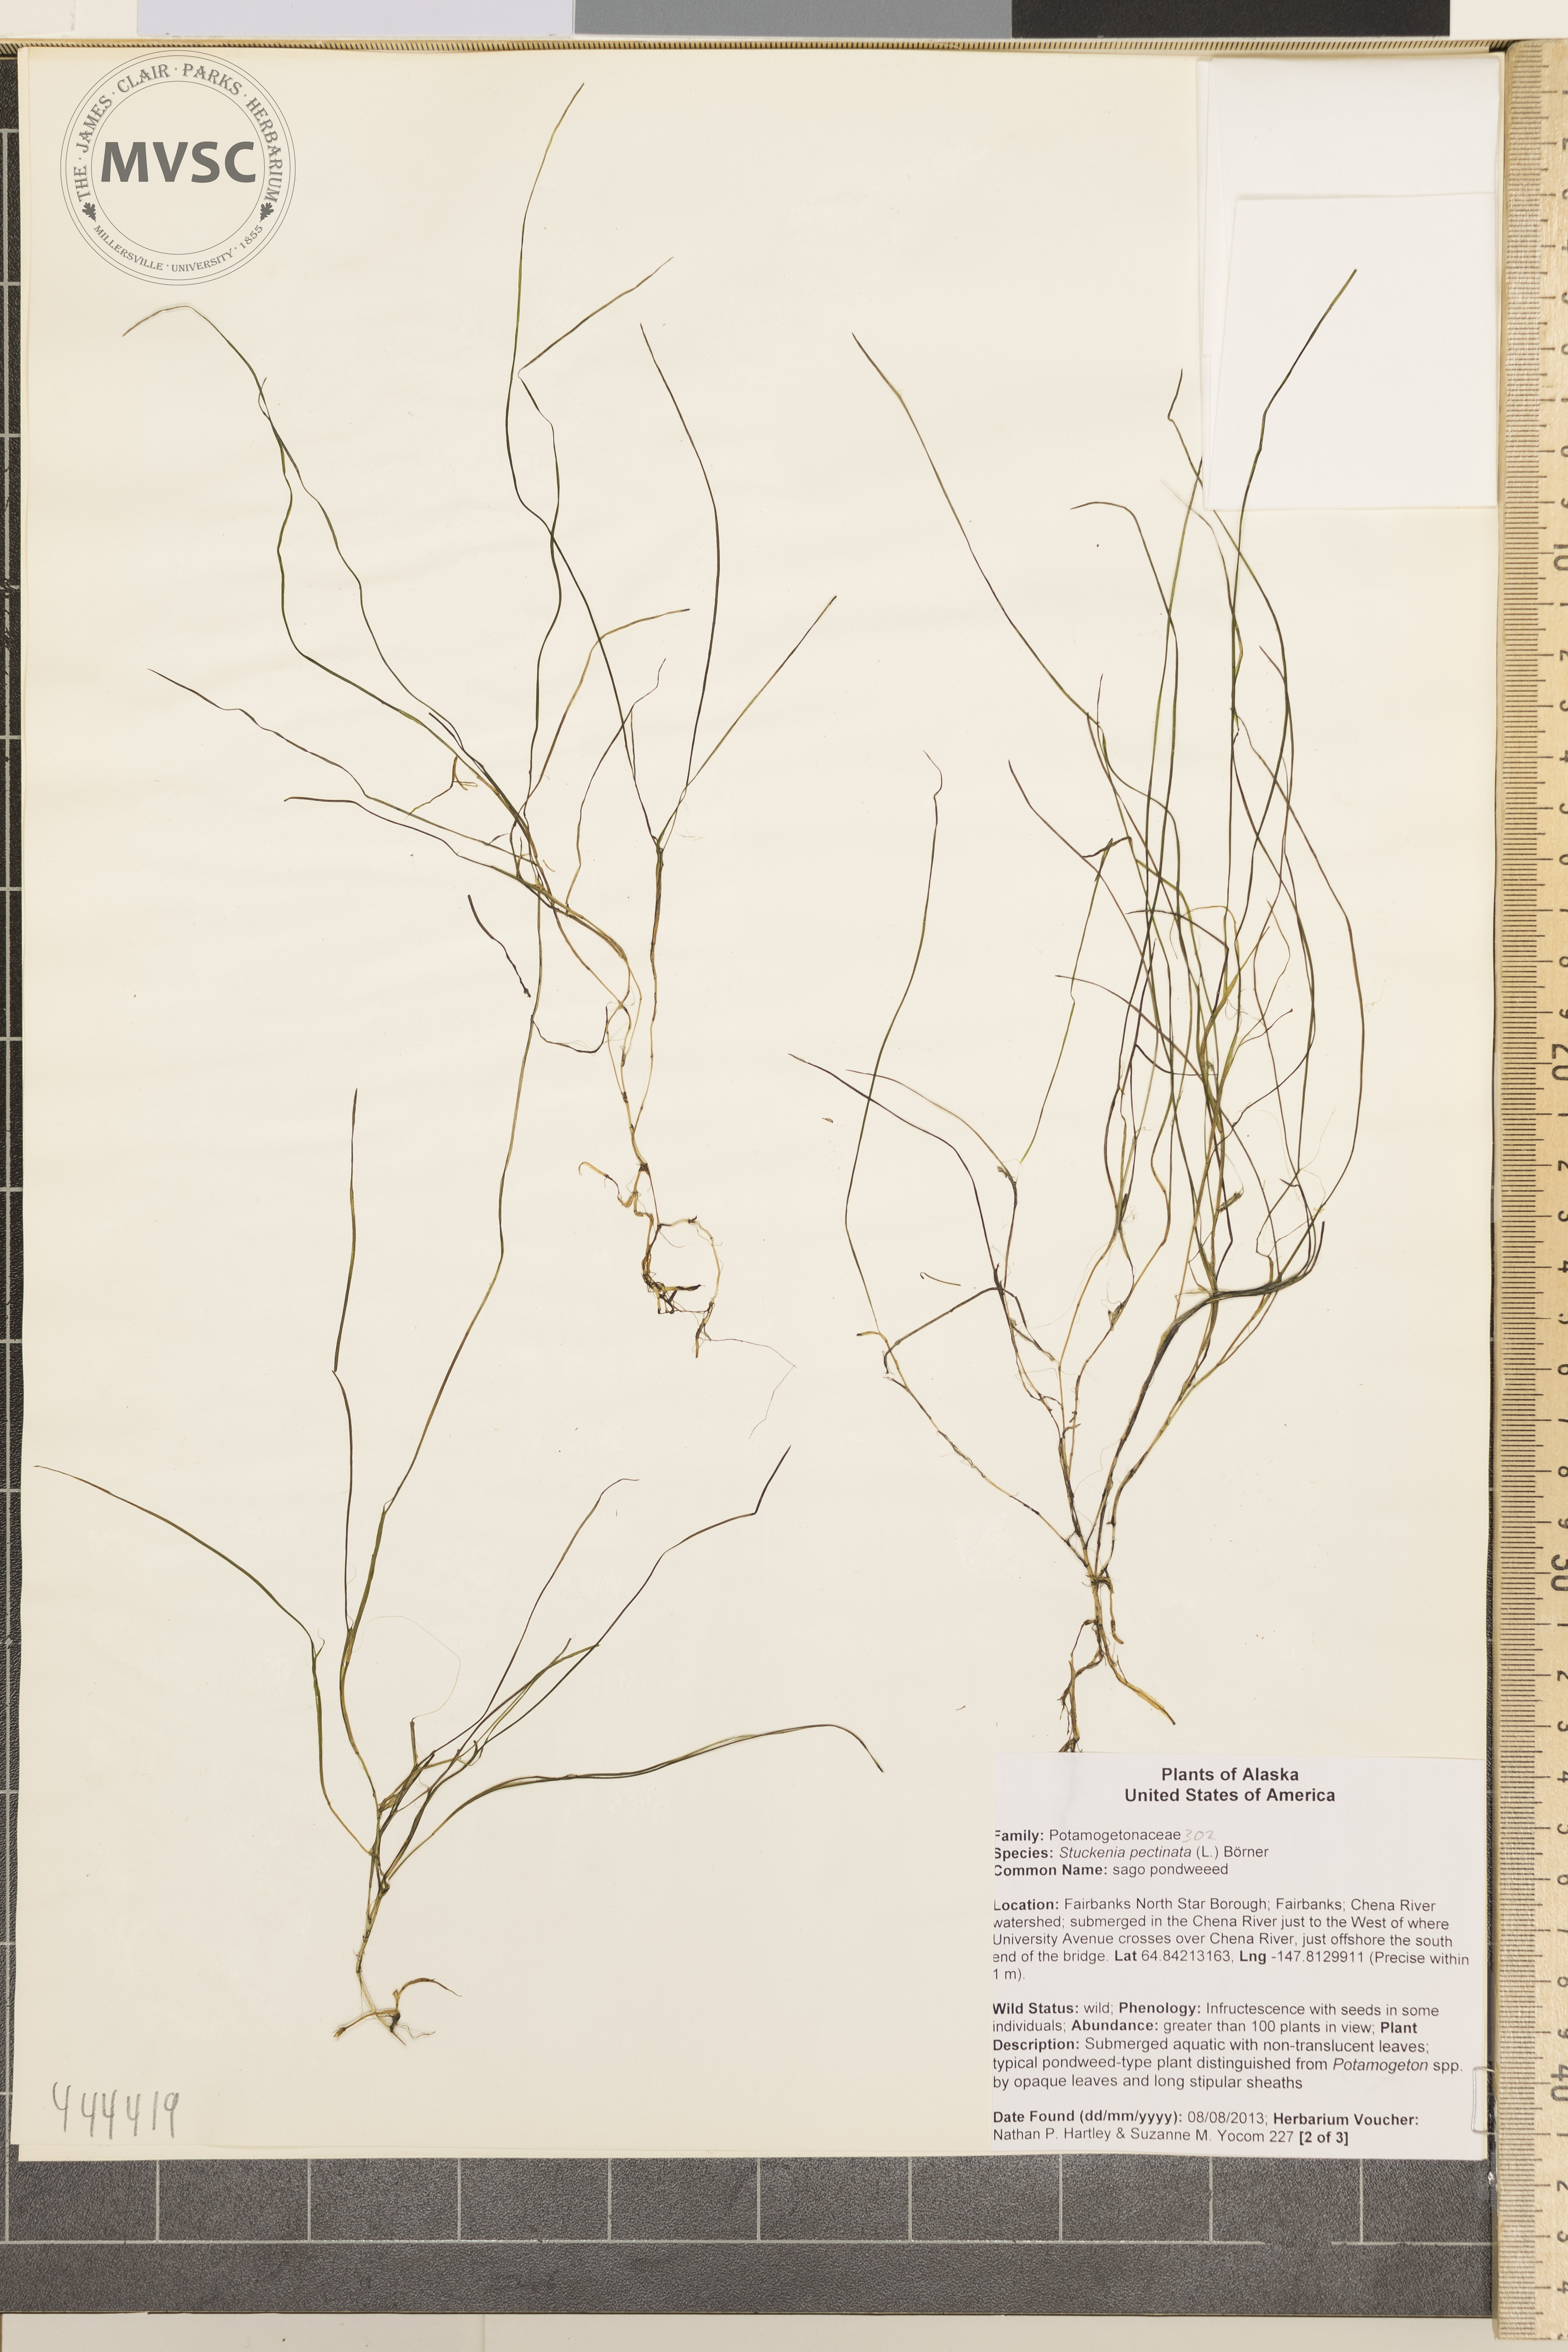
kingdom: Plantae
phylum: Tracheophyta
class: Liliopsida
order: Alismatales
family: Potamogetonaceae
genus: Stuckenia
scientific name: Stuckenia pectinata
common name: Sago pondweed
